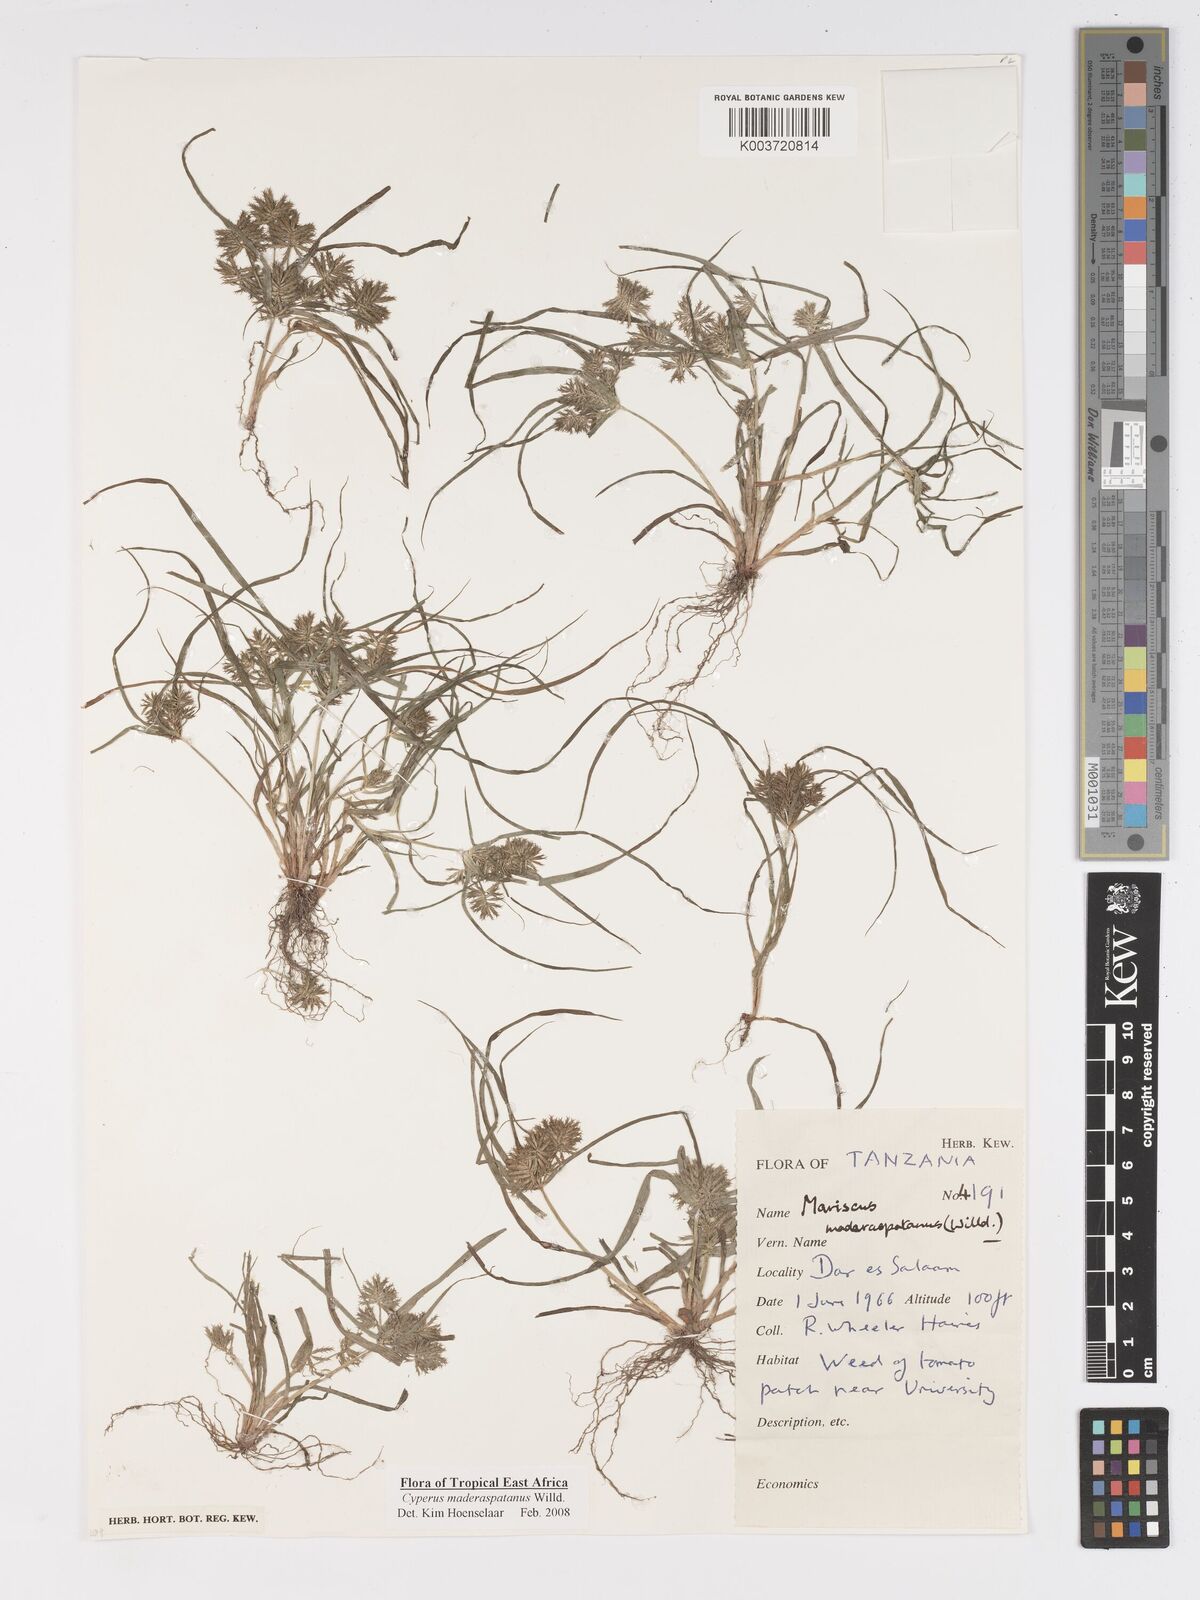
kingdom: Plantae
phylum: Tracheophyta
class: Liliopsida
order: Poales
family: Cyperaceae
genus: Cyperus
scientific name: Cyperus maderaspatanus
